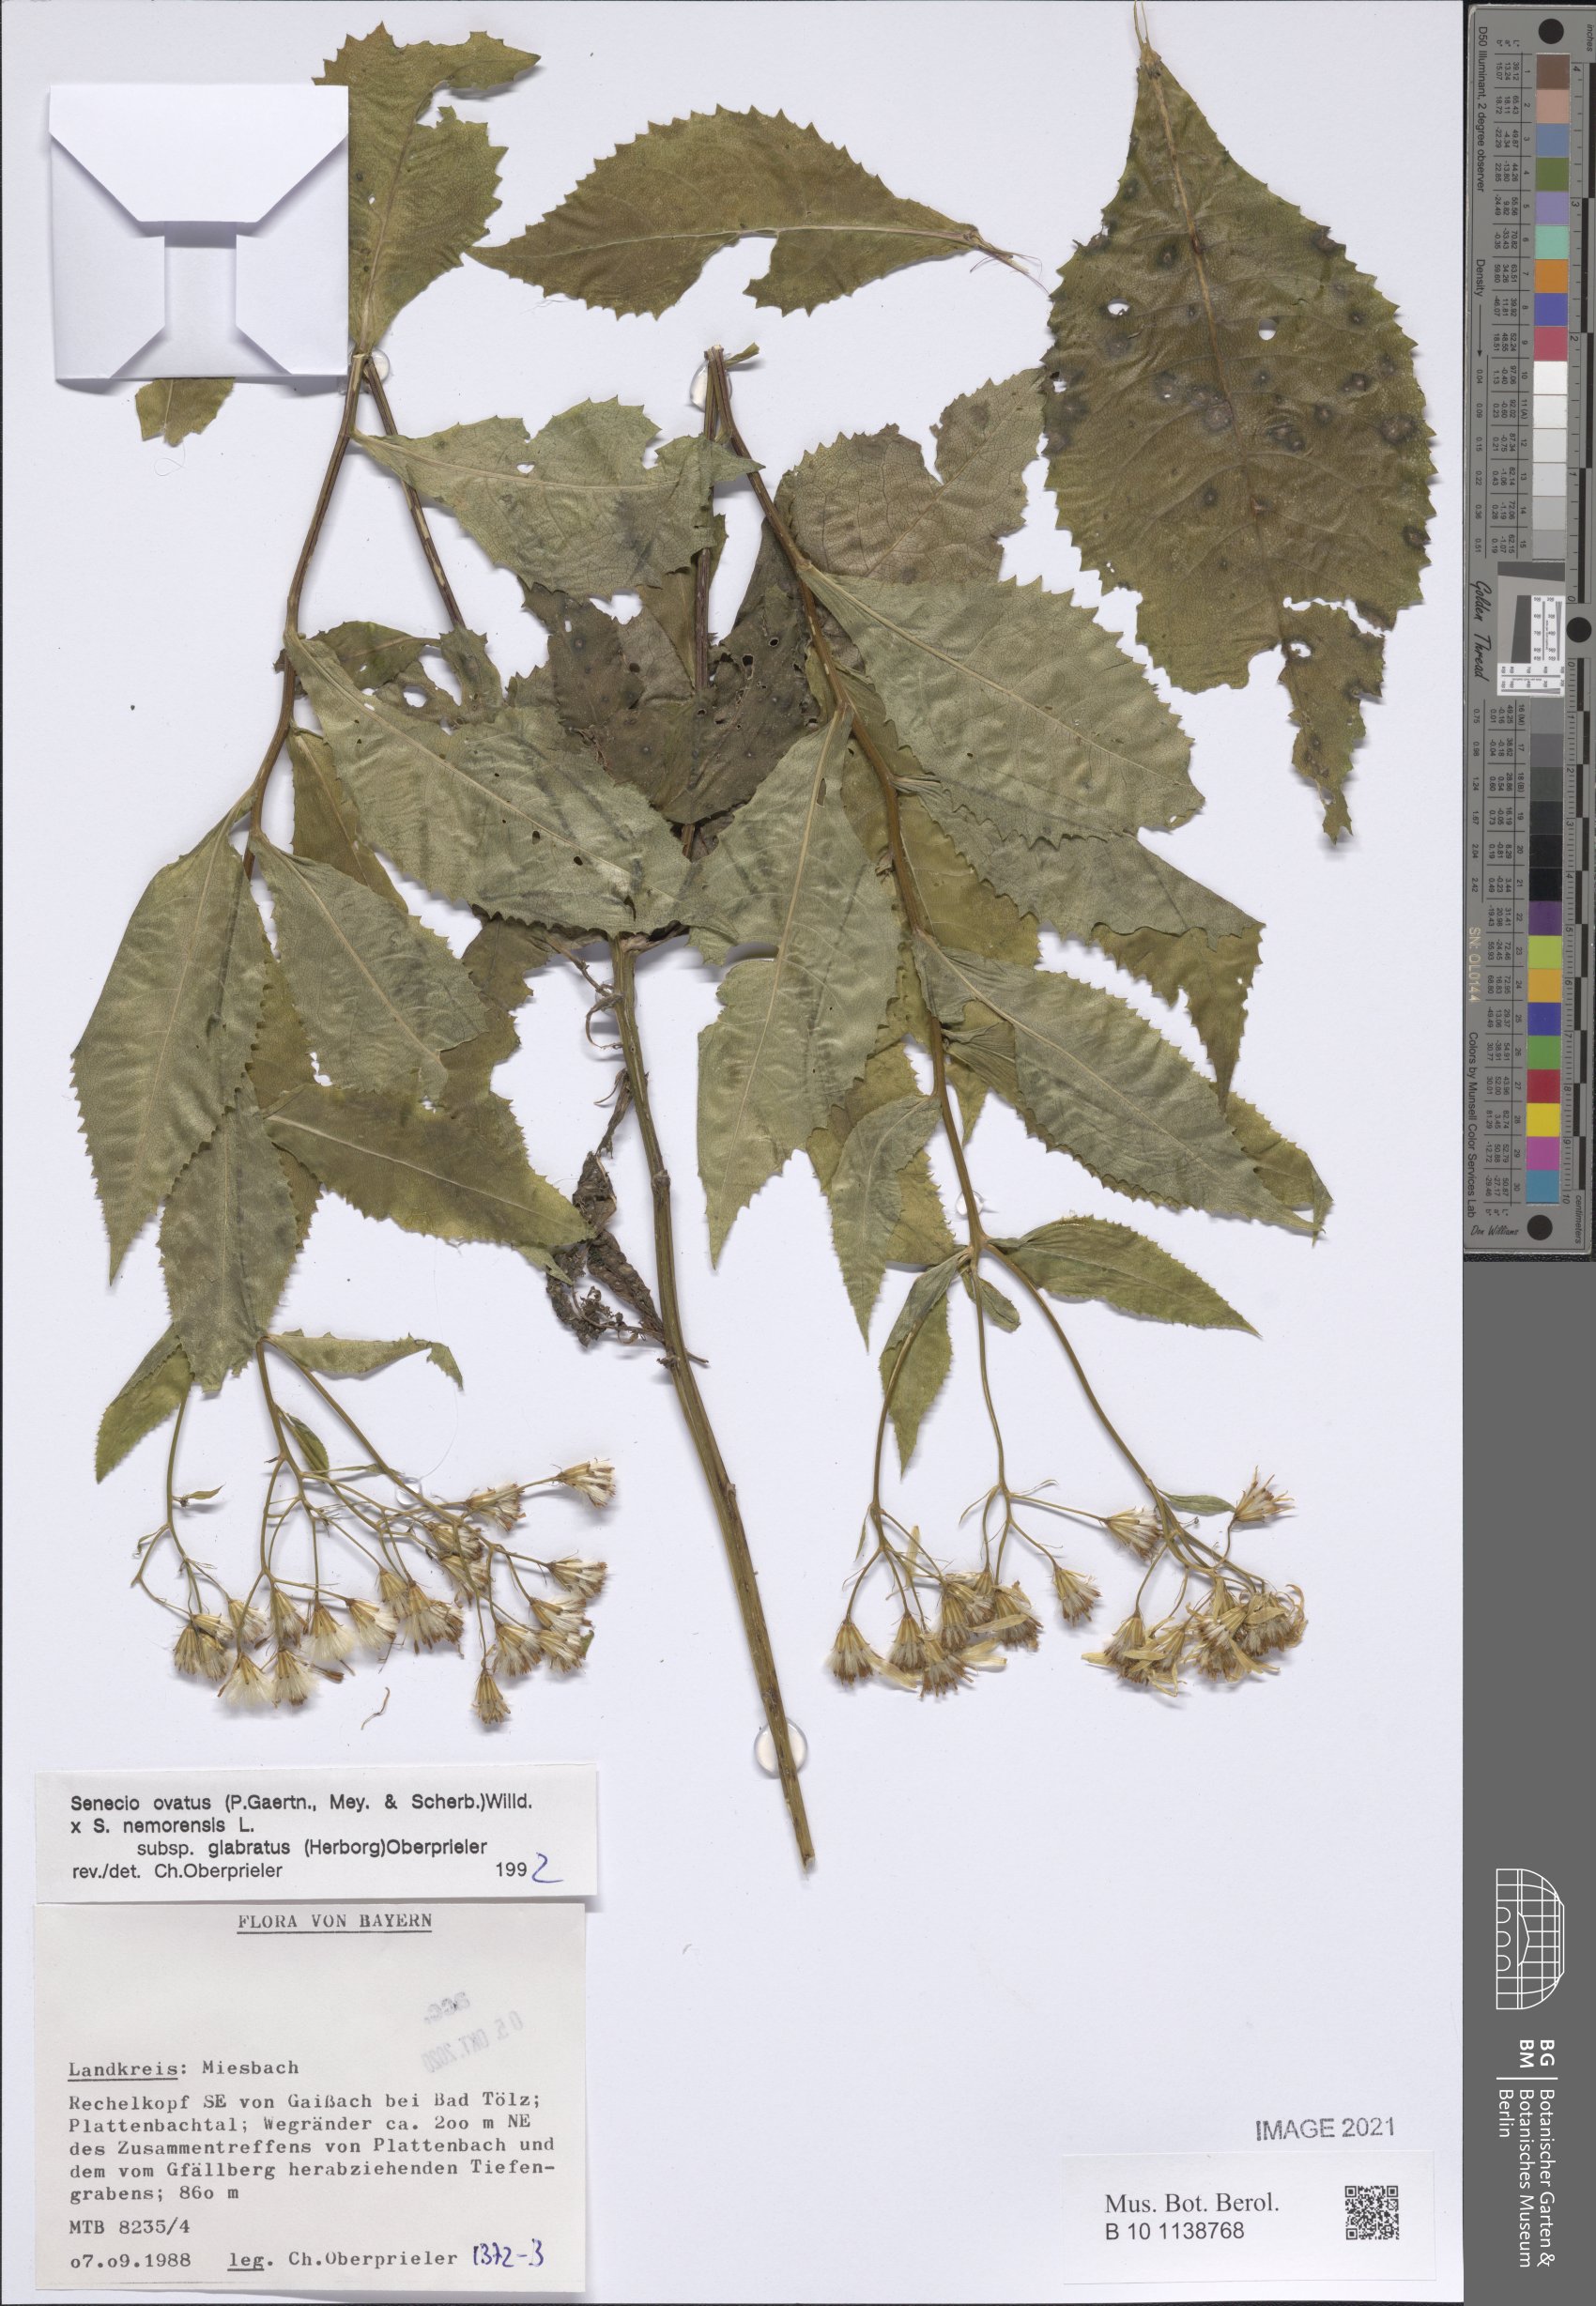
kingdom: Plantae
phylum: Tracheophyta
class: Magnoliopsida
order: Asterales
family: Asteraceae
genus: Senecio
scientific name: Senecio ovatus
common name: Wood ragwort
